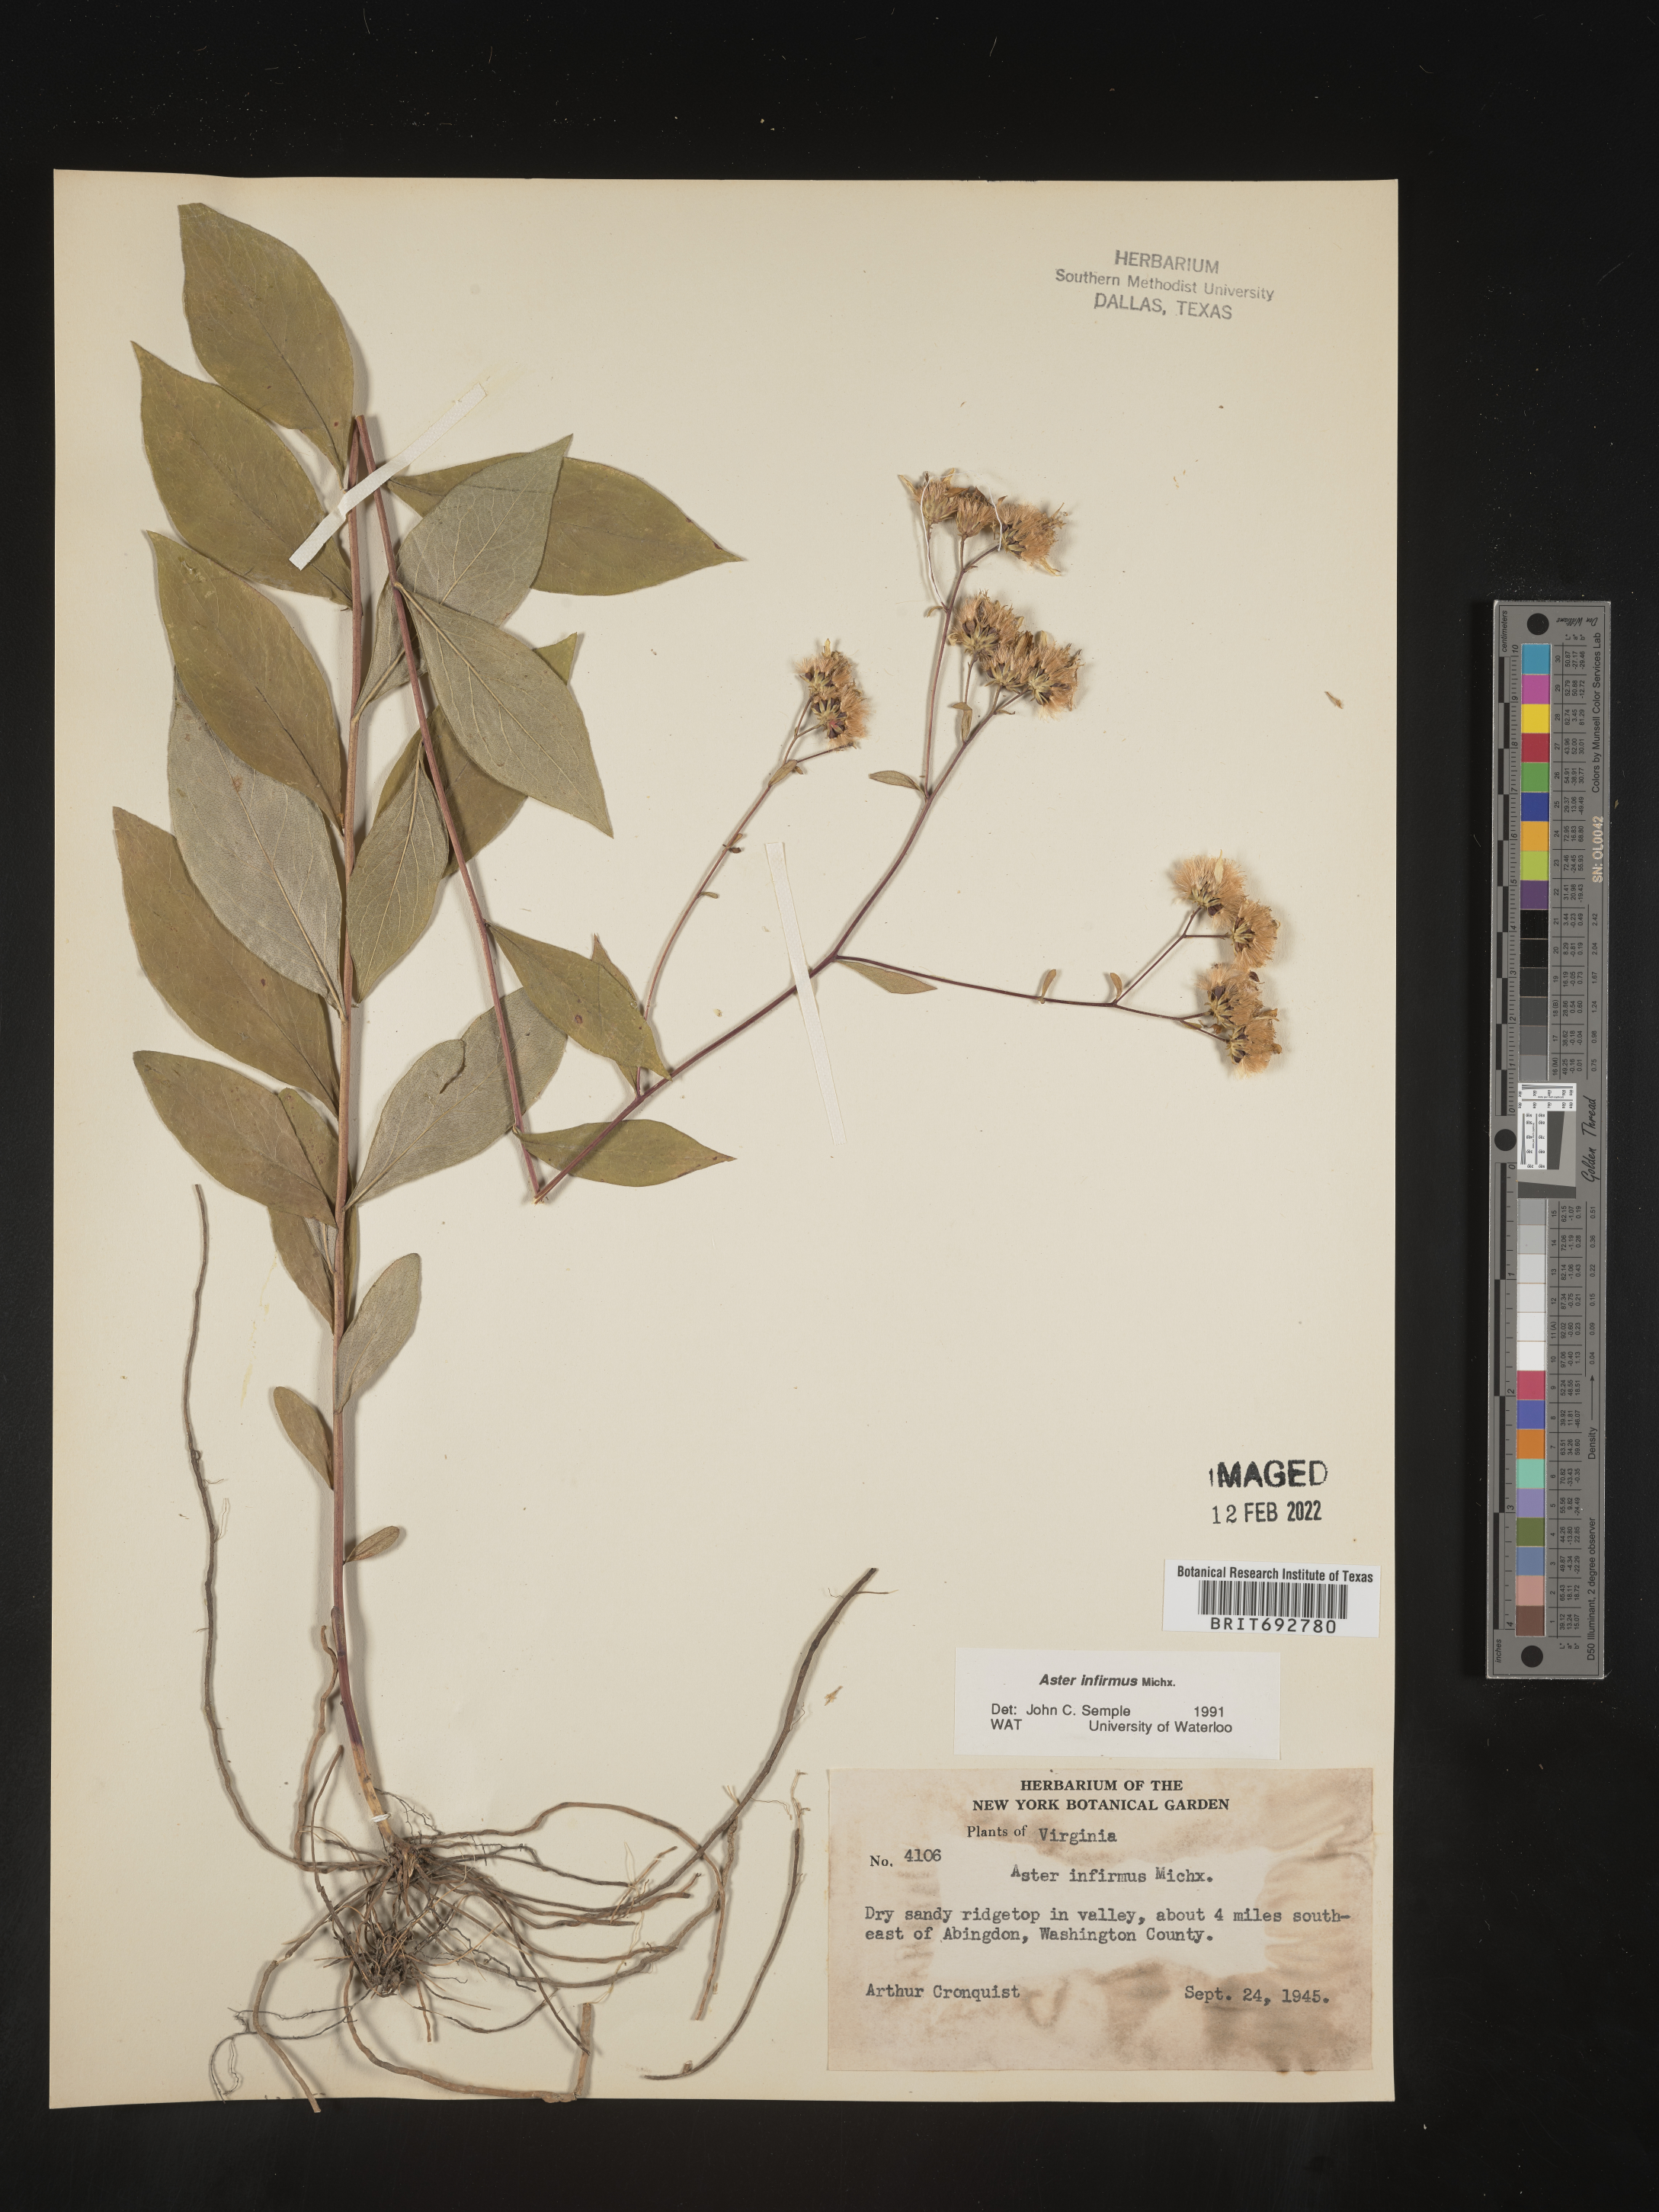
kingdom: Plantae
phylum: Tracheophyta
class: Magnoliopsida
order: Asterales
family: Asteraceae
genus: Doellingeria
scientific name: Doellingeria infirma
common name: Appalachian flat-top aster
